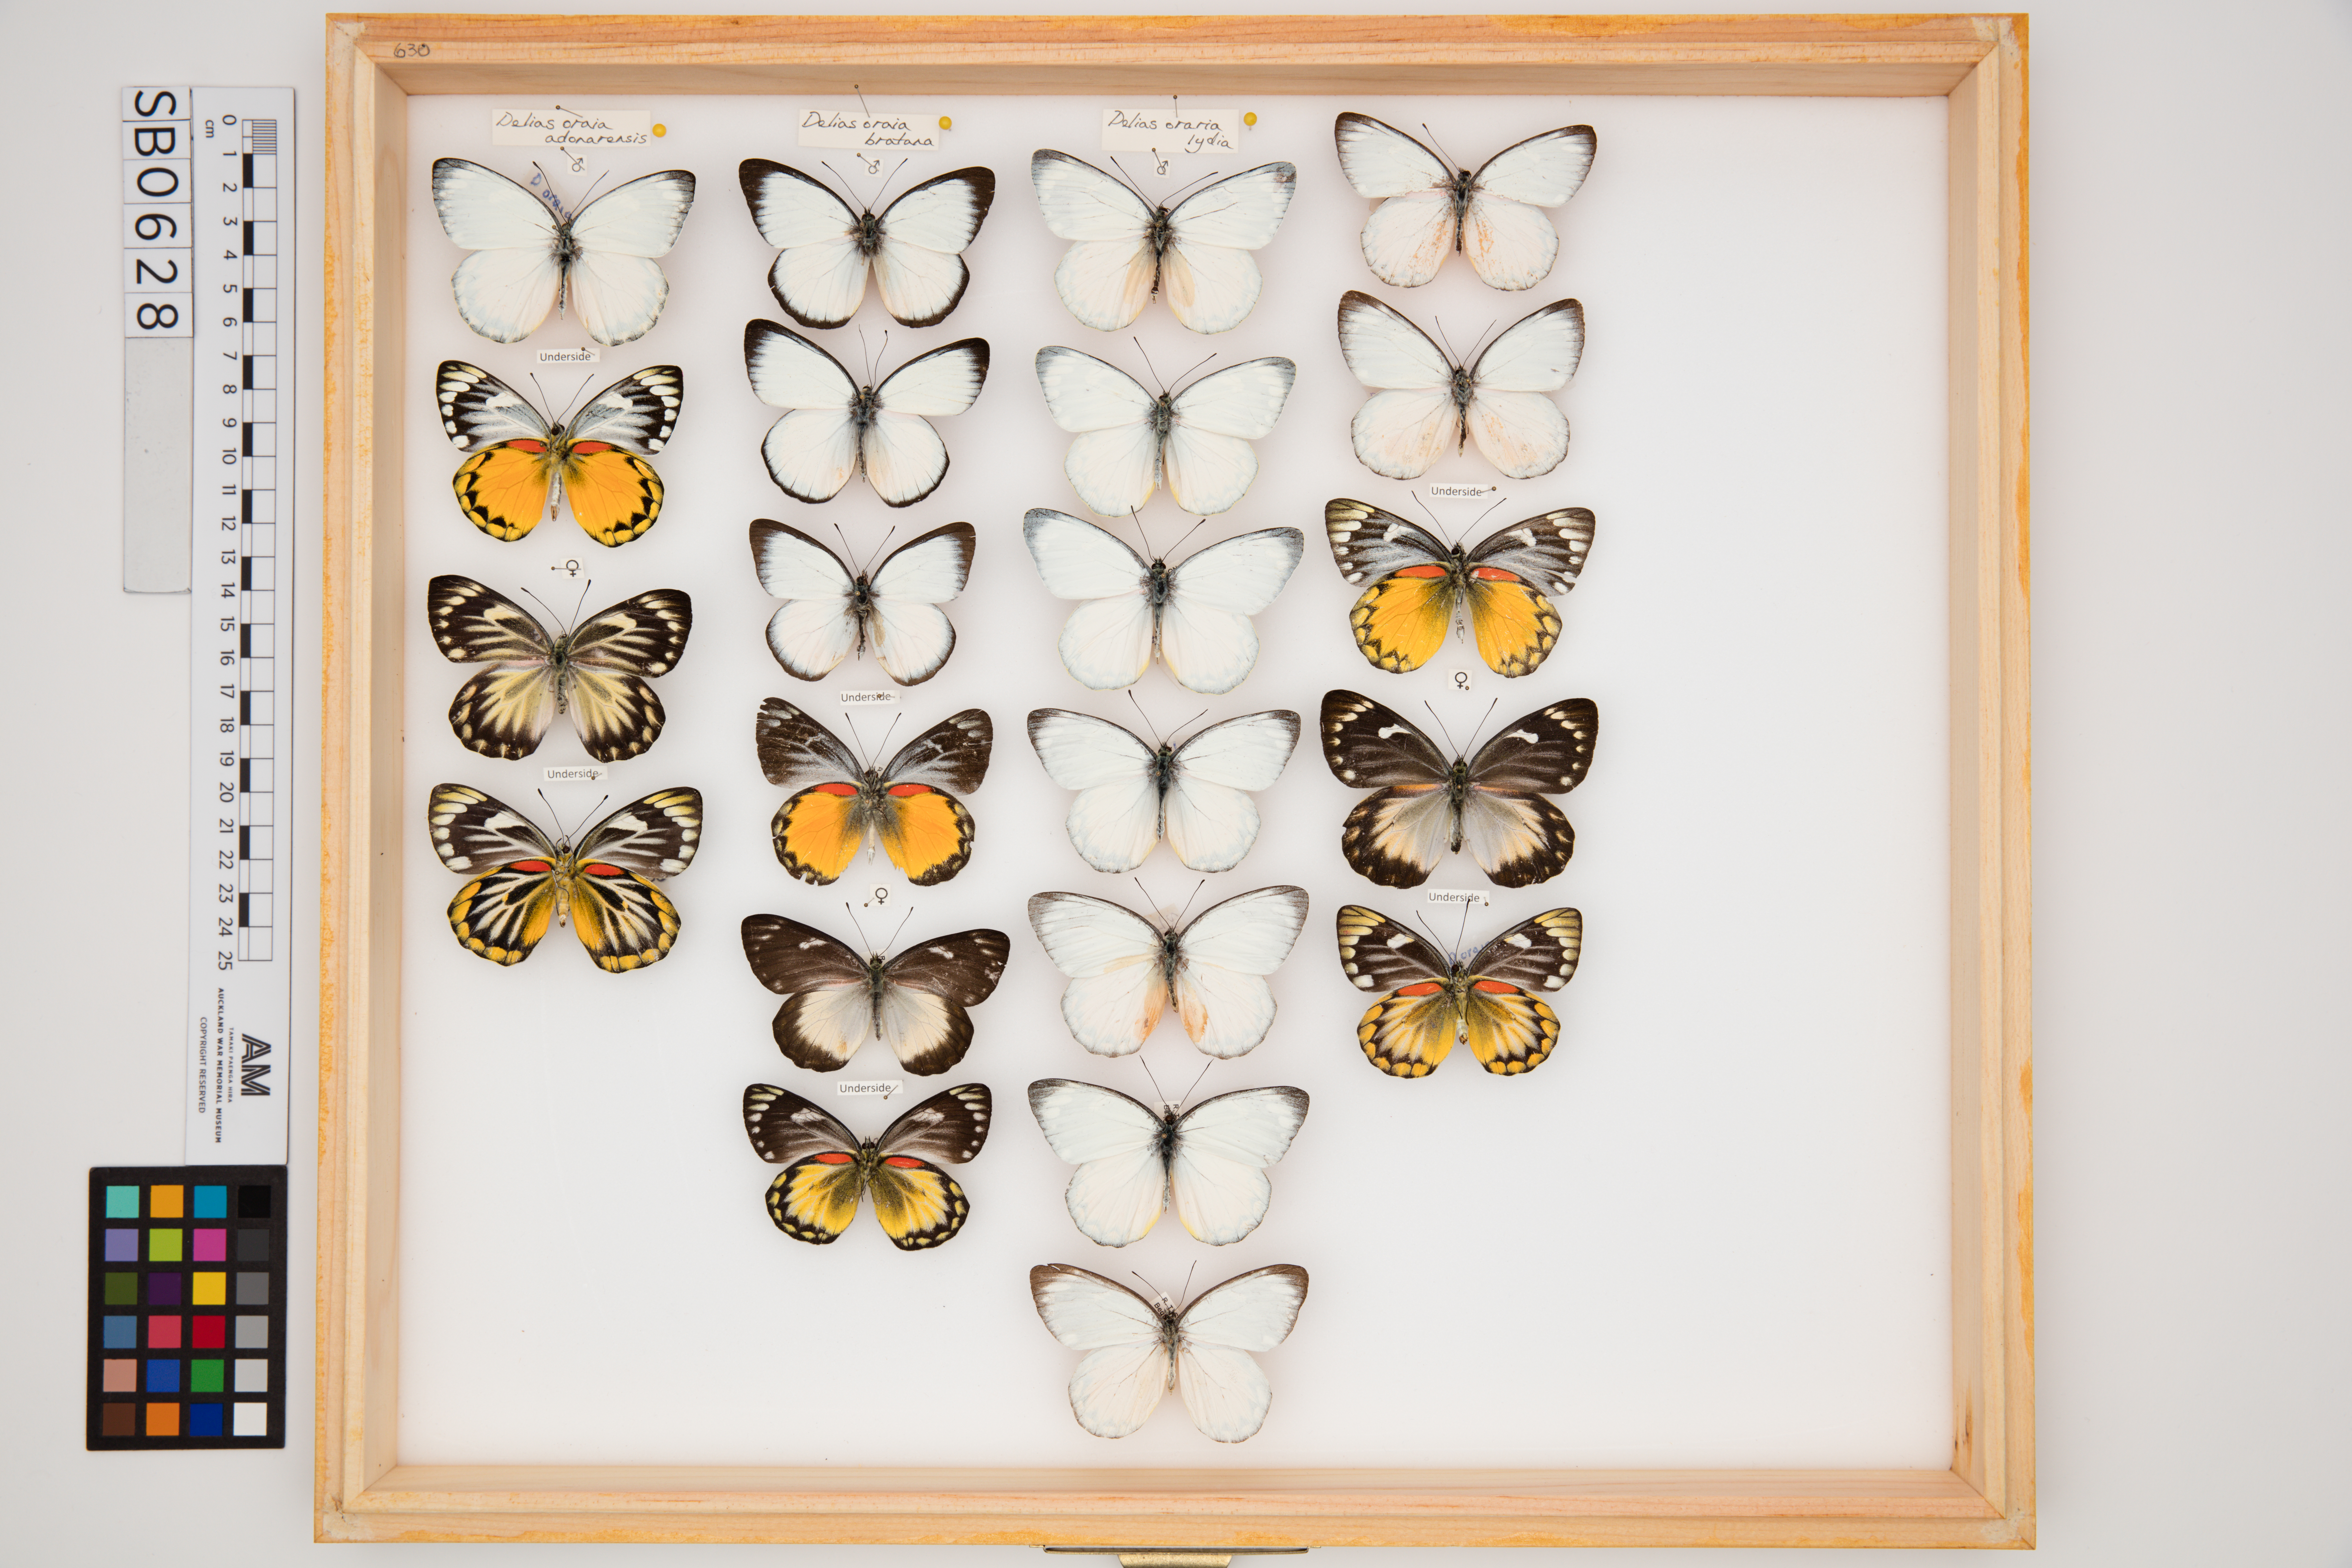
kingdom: Animalia
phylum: Arthropoda
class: Insecta
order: Lepidoptera
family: Pieridae
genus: Delias
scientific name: Delias oraia
